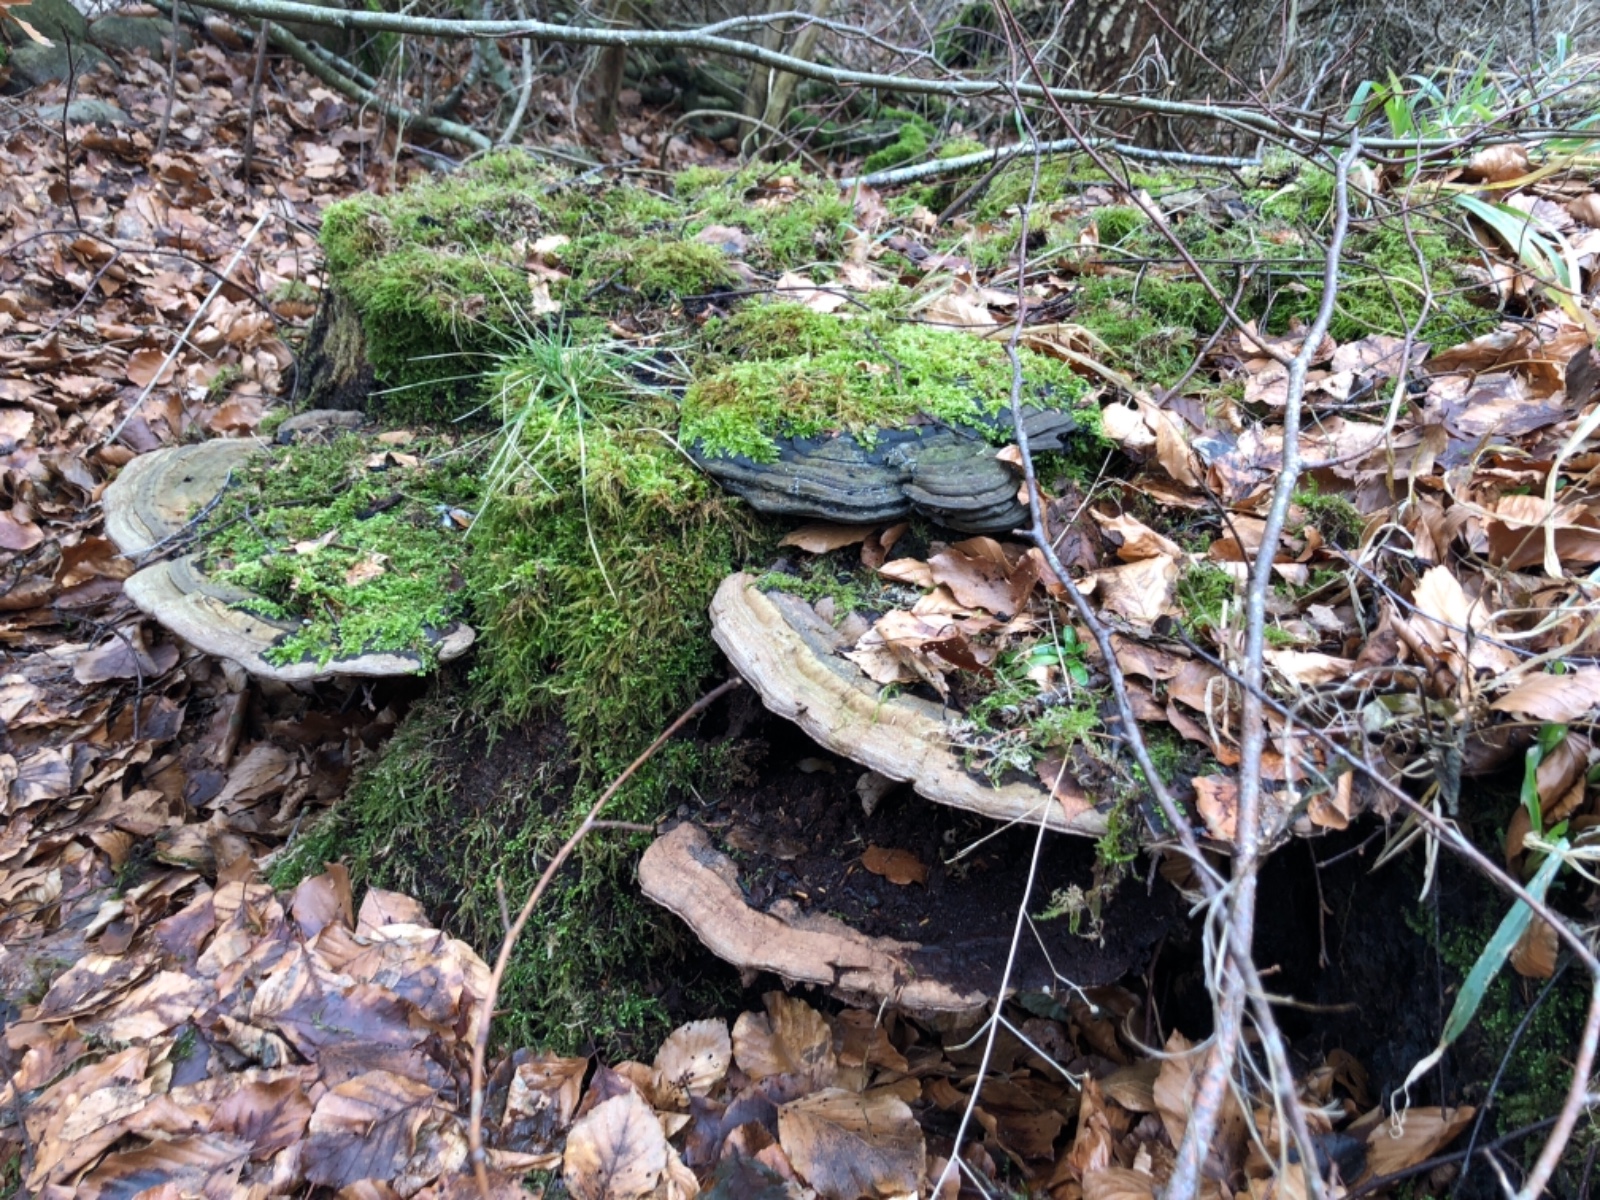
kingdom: Fungi
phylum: Basidiomycota
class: Agaricomycetes
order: Polyporales
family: Polyporaceae
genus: Ganoderma
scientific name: Ganoderma applanatum
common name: flad lakporesvamp
